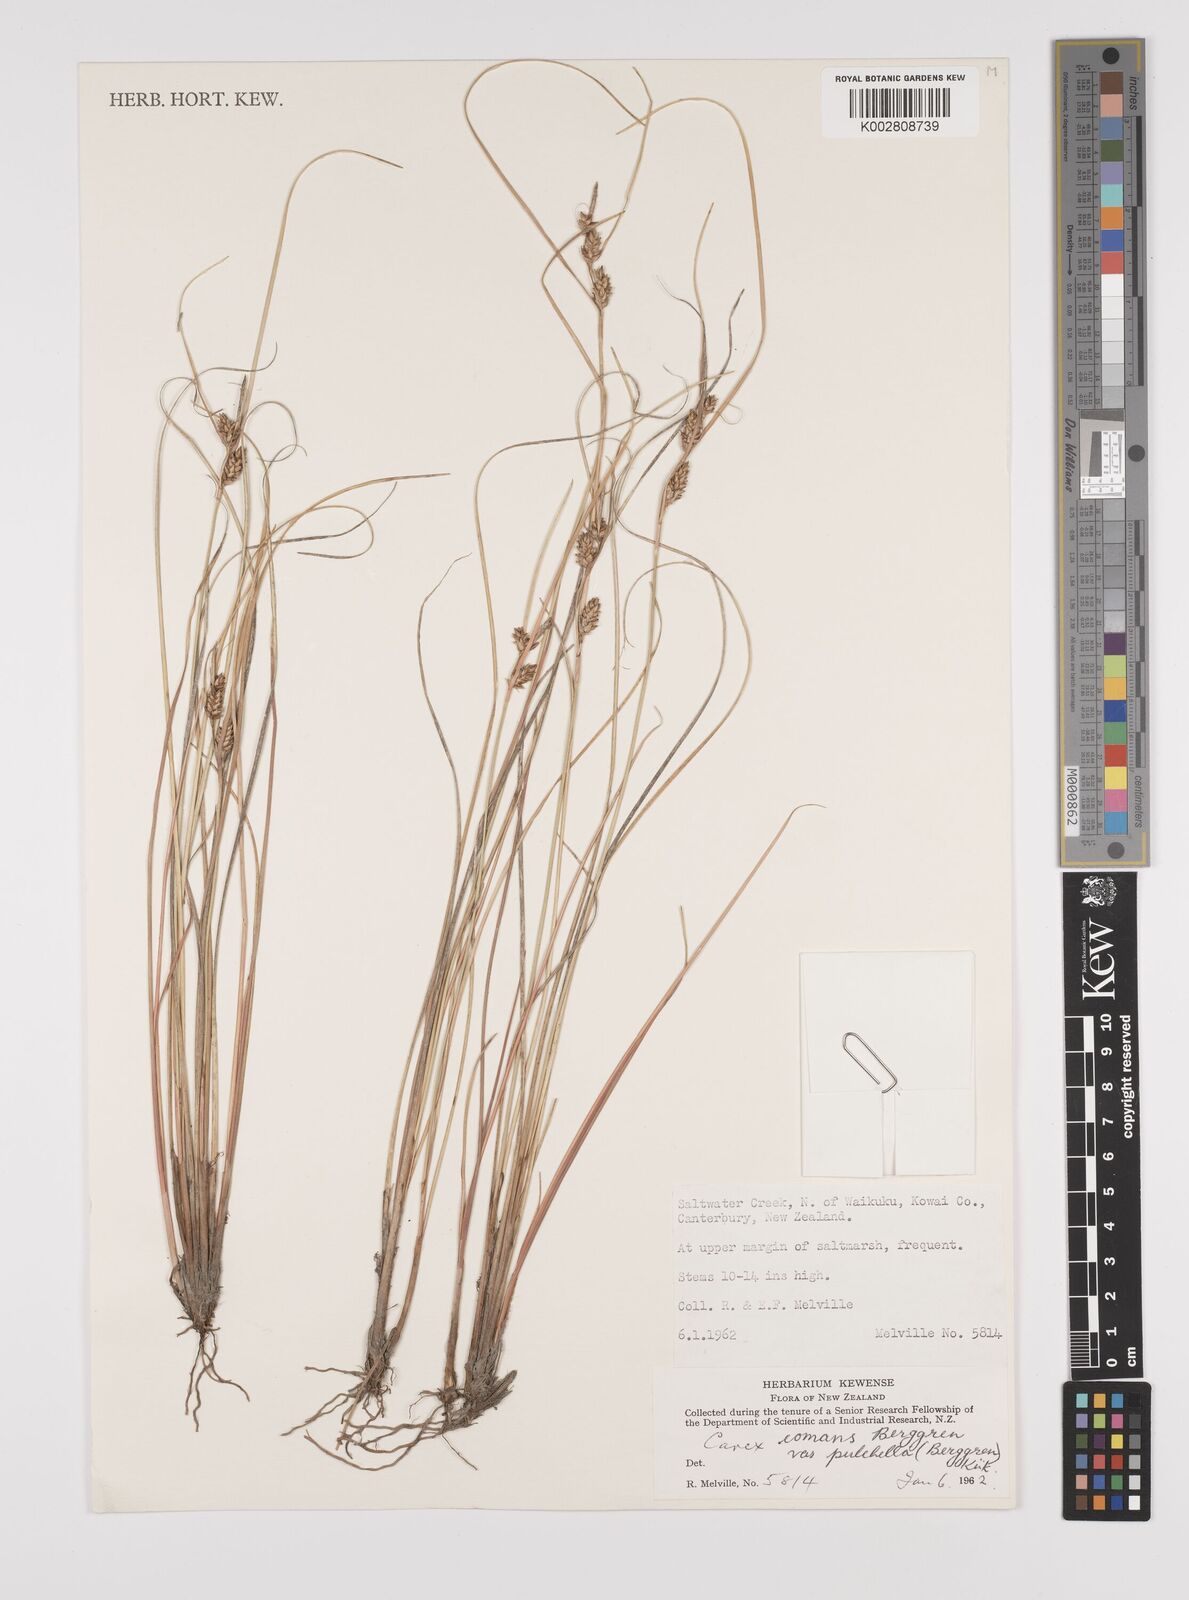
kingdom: Plantae
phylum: Tracheophyta
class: Liliopsida
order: Poales
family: Cyperaceae
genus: Carex
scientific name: Carex comans
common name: Longwood tussock
